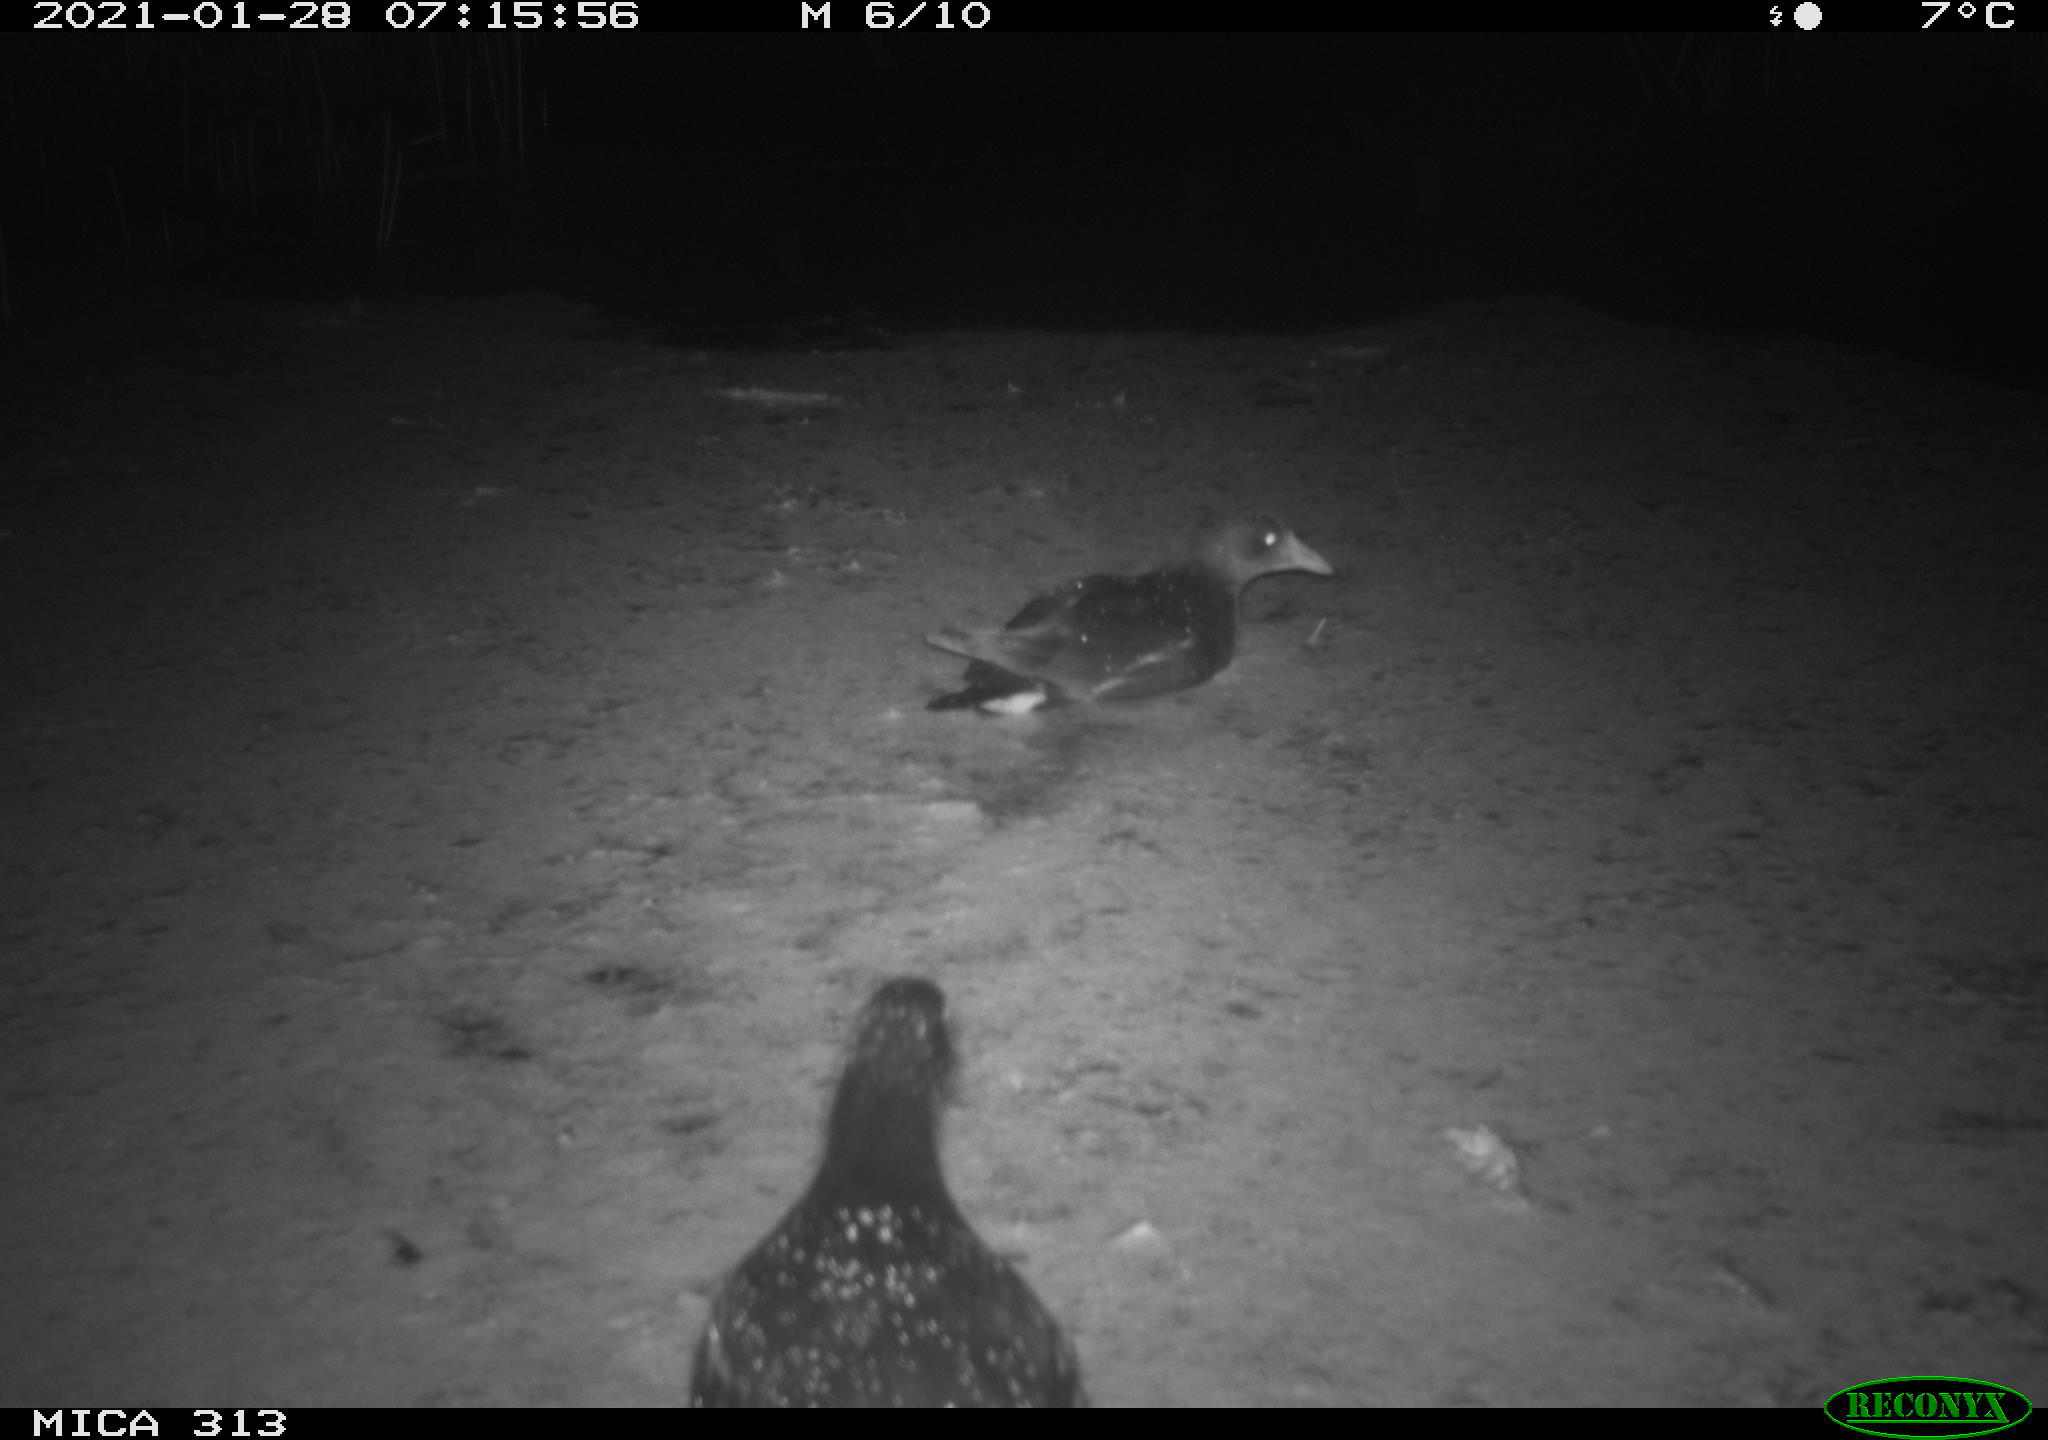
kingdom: Animalia
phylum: Chordata
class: Aves
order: Gruiformes
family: Rallidae
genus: Fulica
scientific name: Fulica atra
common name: Eurasian coot
